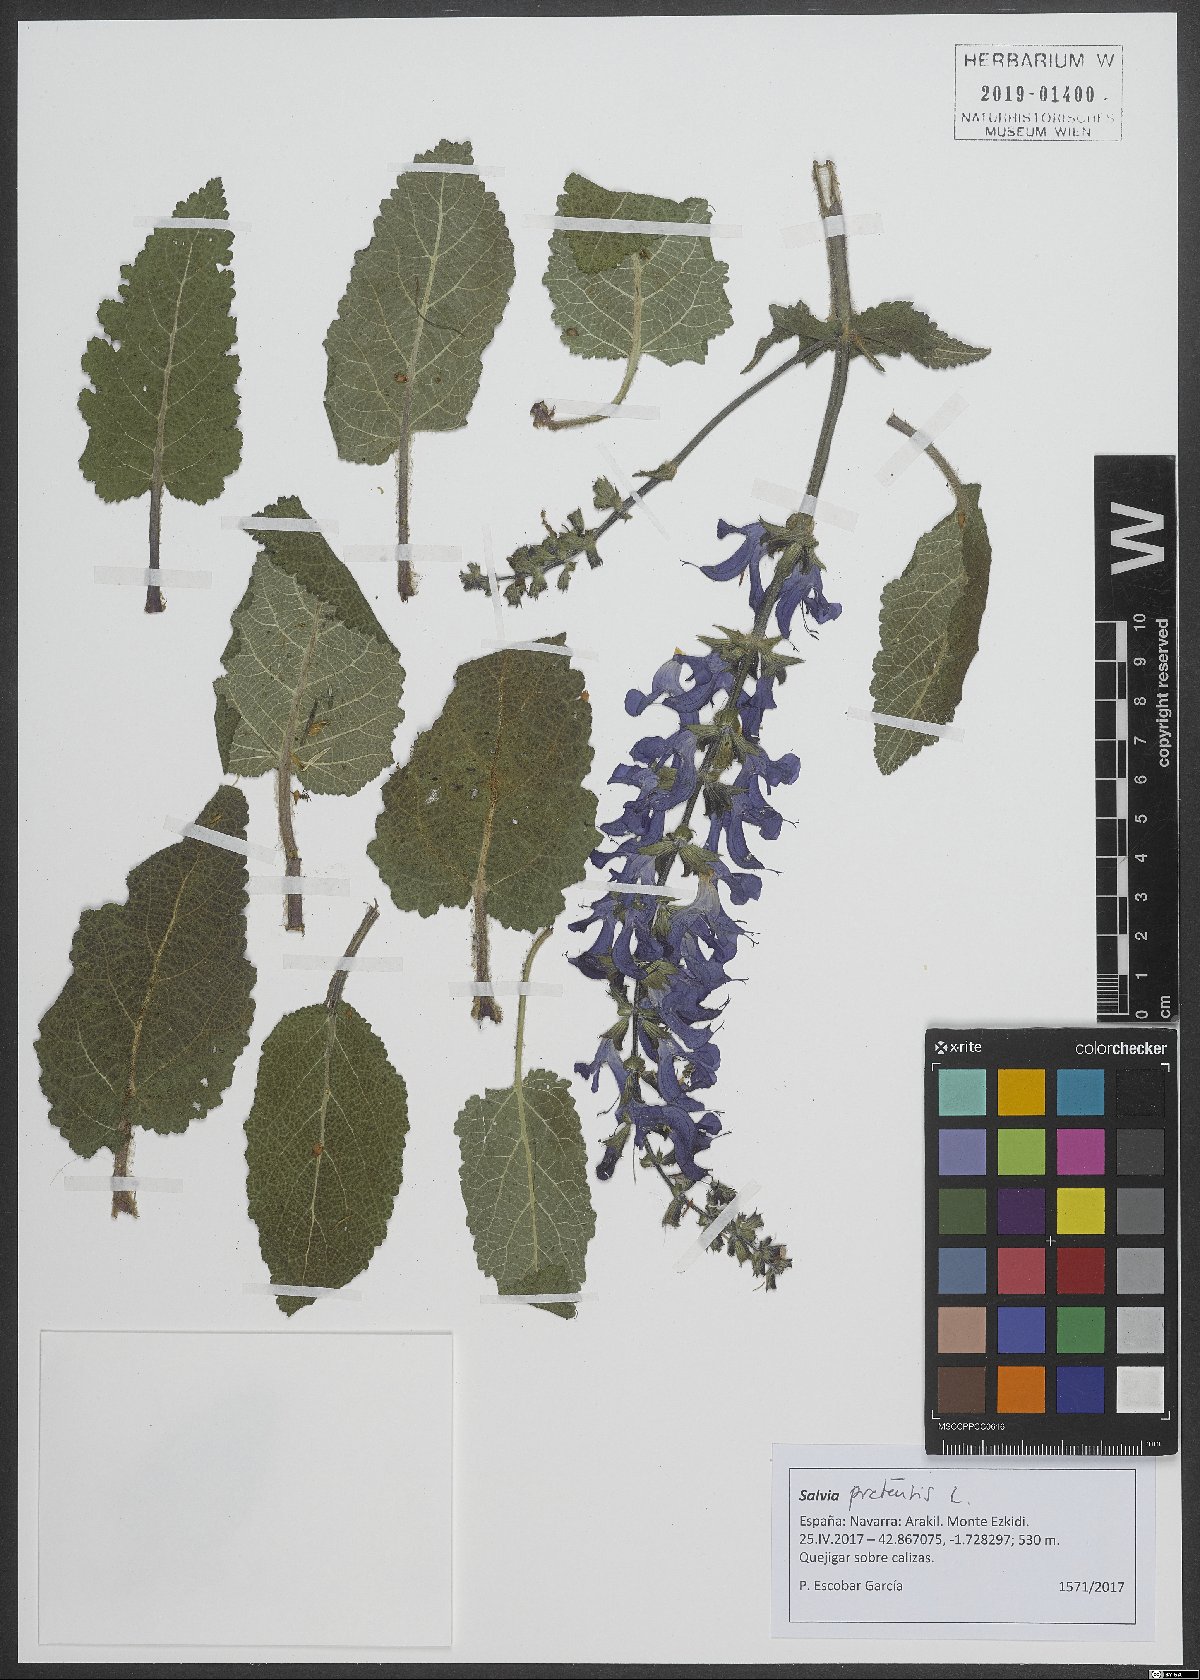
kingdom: Plantae
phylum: Tracheophyta
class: Magnoliopsida
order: Lamiales
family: Lamiaceae
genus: Salvia
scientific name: Salvia pratensis
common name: Meadow sage
